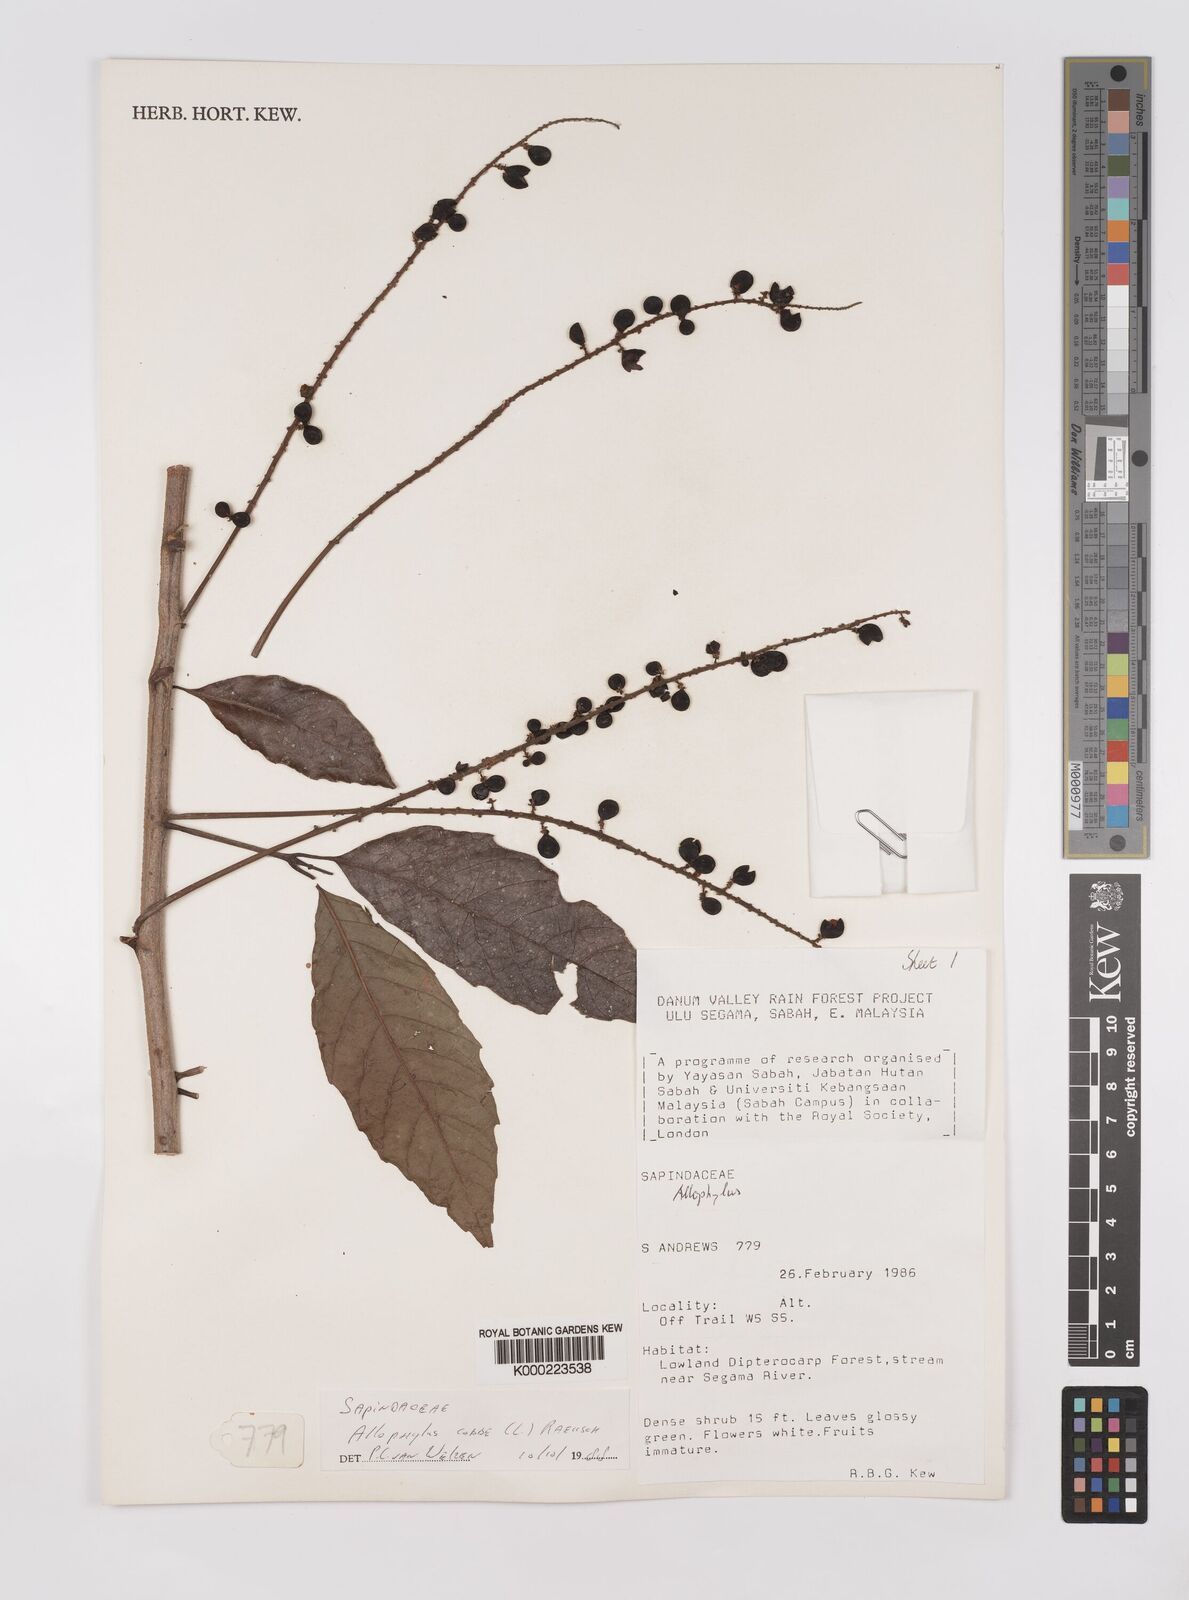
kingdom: Plantae
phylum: Tracheophyta
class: Magnoliopsida
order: Sapindales
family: Sapindaceae
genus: Allophylus
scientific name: Allophylus
